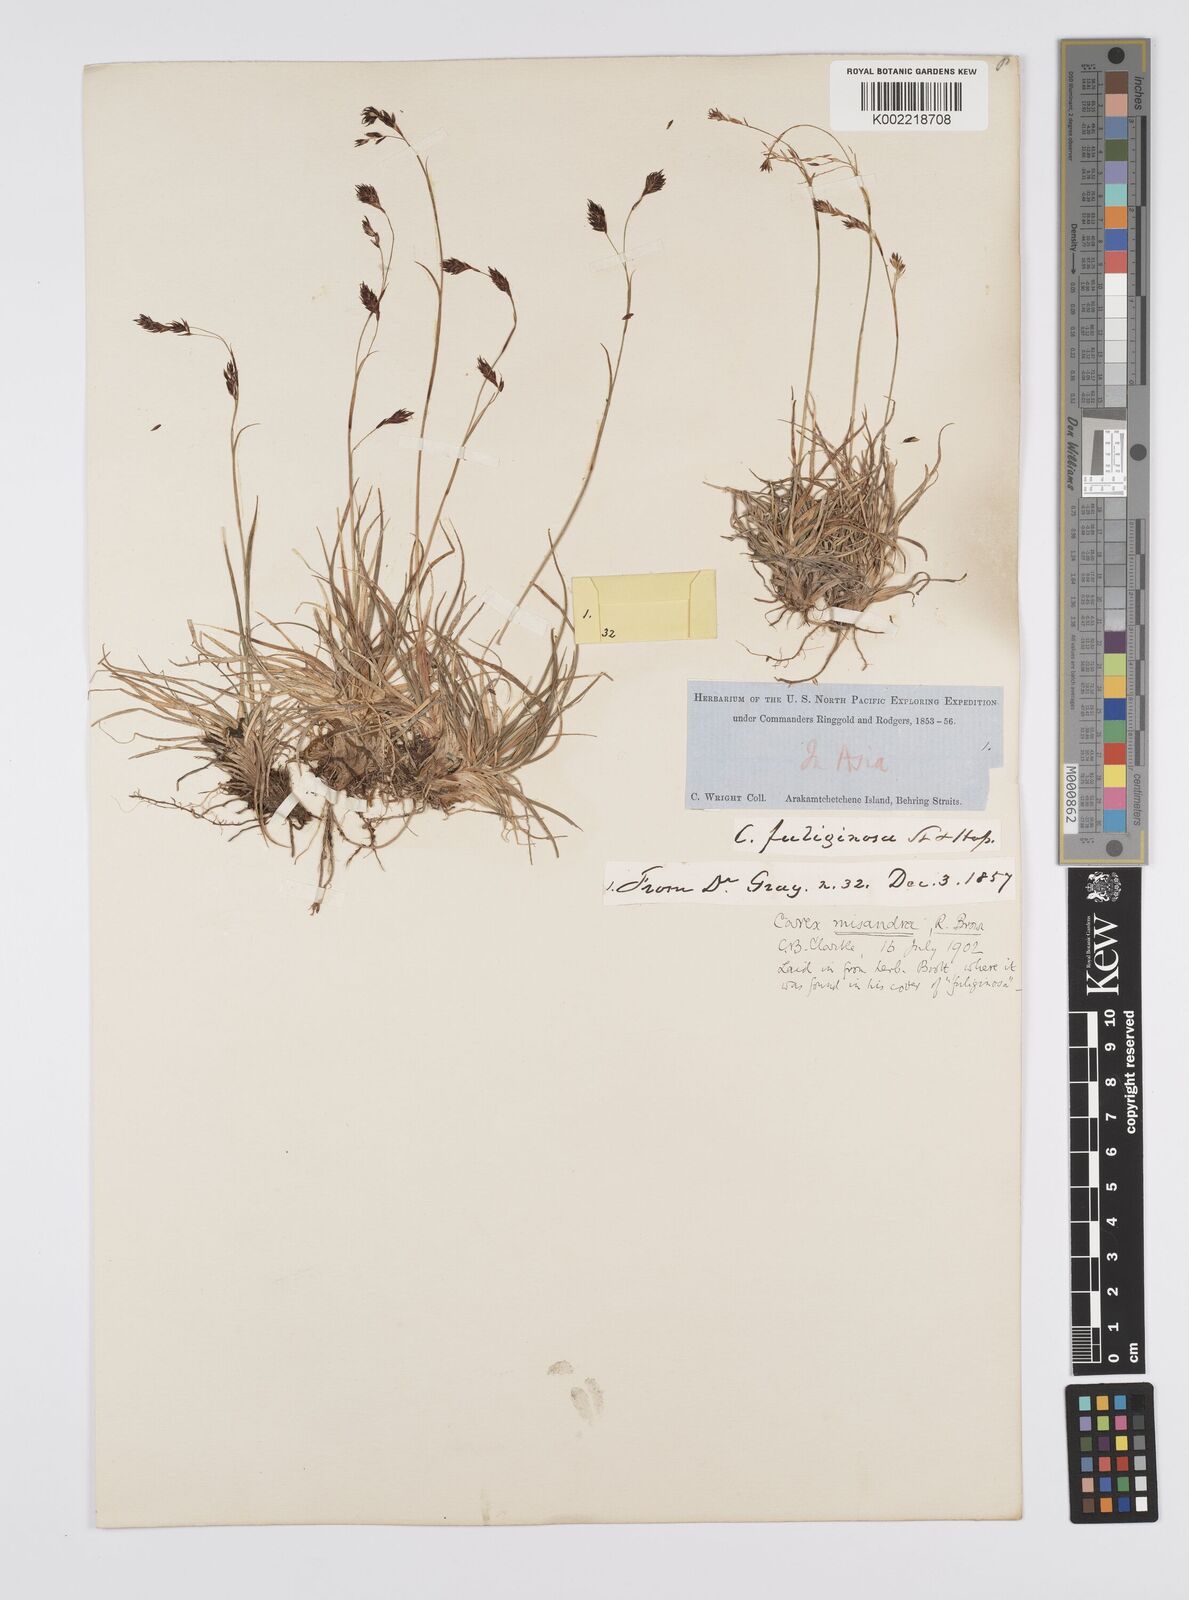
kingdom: Plantae
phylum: Tracheophyta
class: Liliopsida
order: Poales
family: Cyperaceae
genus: Carex
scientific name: Carex fuliginosa
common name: Few-flowered sedge
